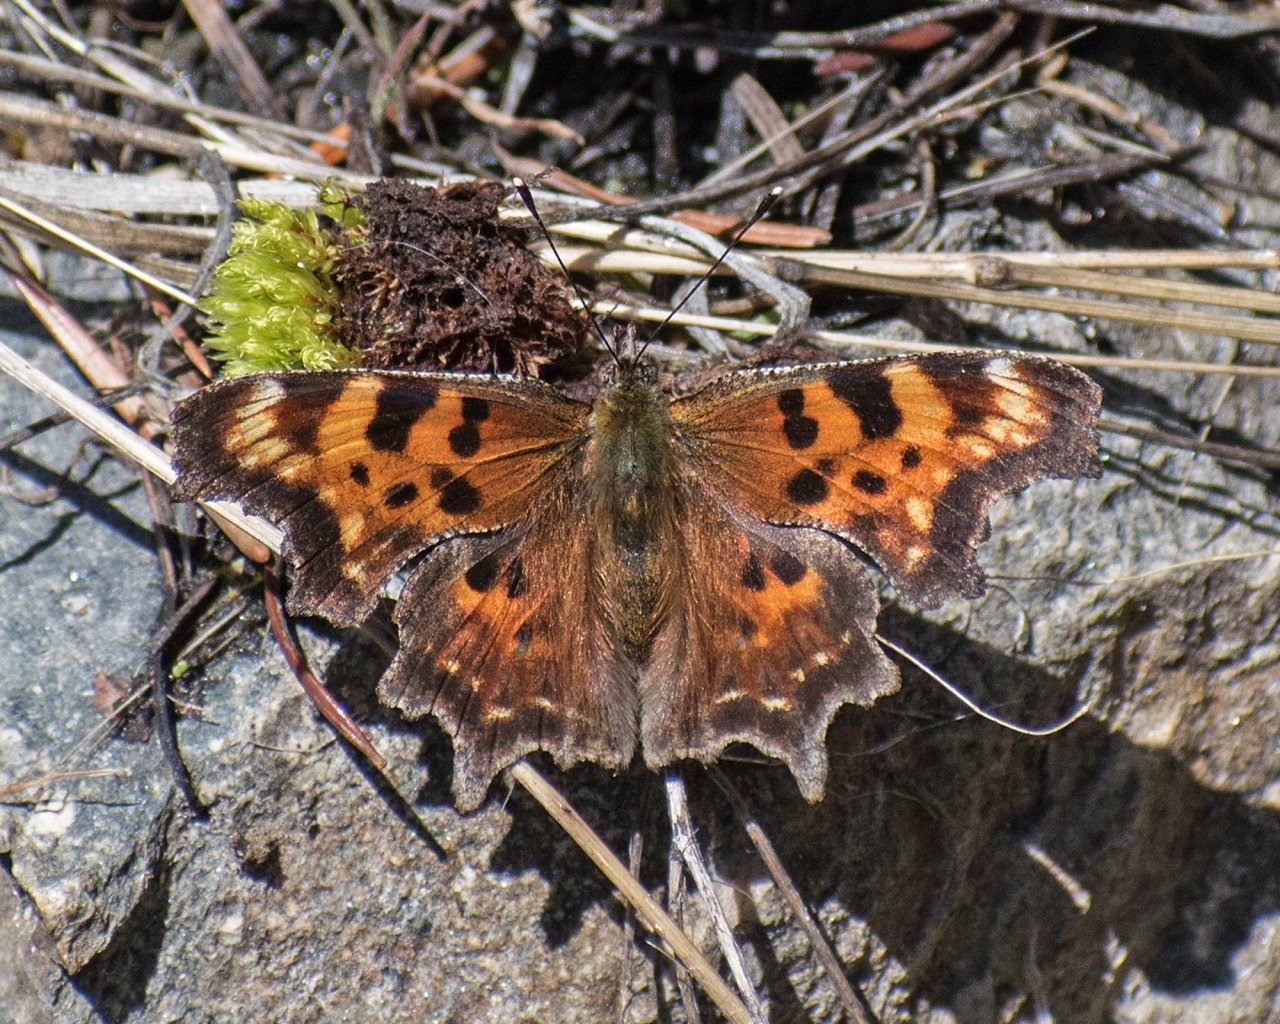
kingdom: Animalia
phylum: Arthropoda
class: Insecta
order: Lepidoptera
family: Nymphalidae
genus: Polygonia
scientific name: Polygonia faunus
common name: Green Comma
